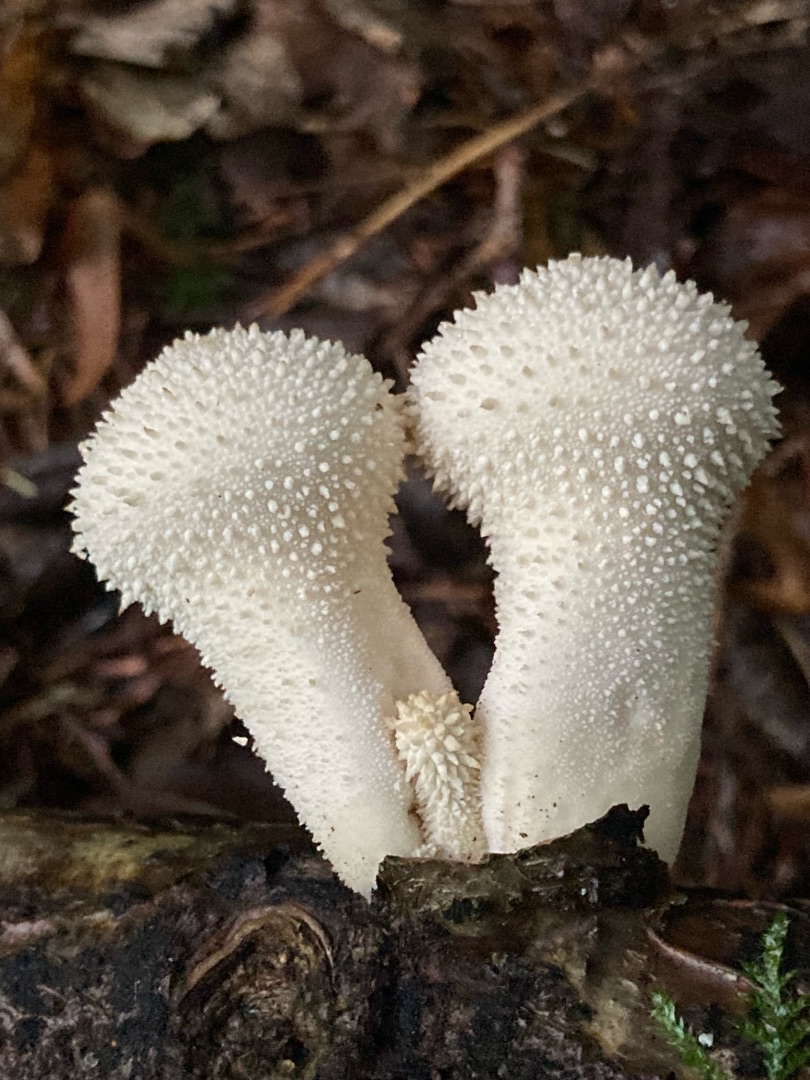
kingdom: Fungi
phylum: Basidiomycota
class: Agaricomycetes
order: Agaricales
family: Lycoperdaceae
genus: Lycoperdon
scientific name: Lycoperdon perlatum
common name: Krystal-støvbold
